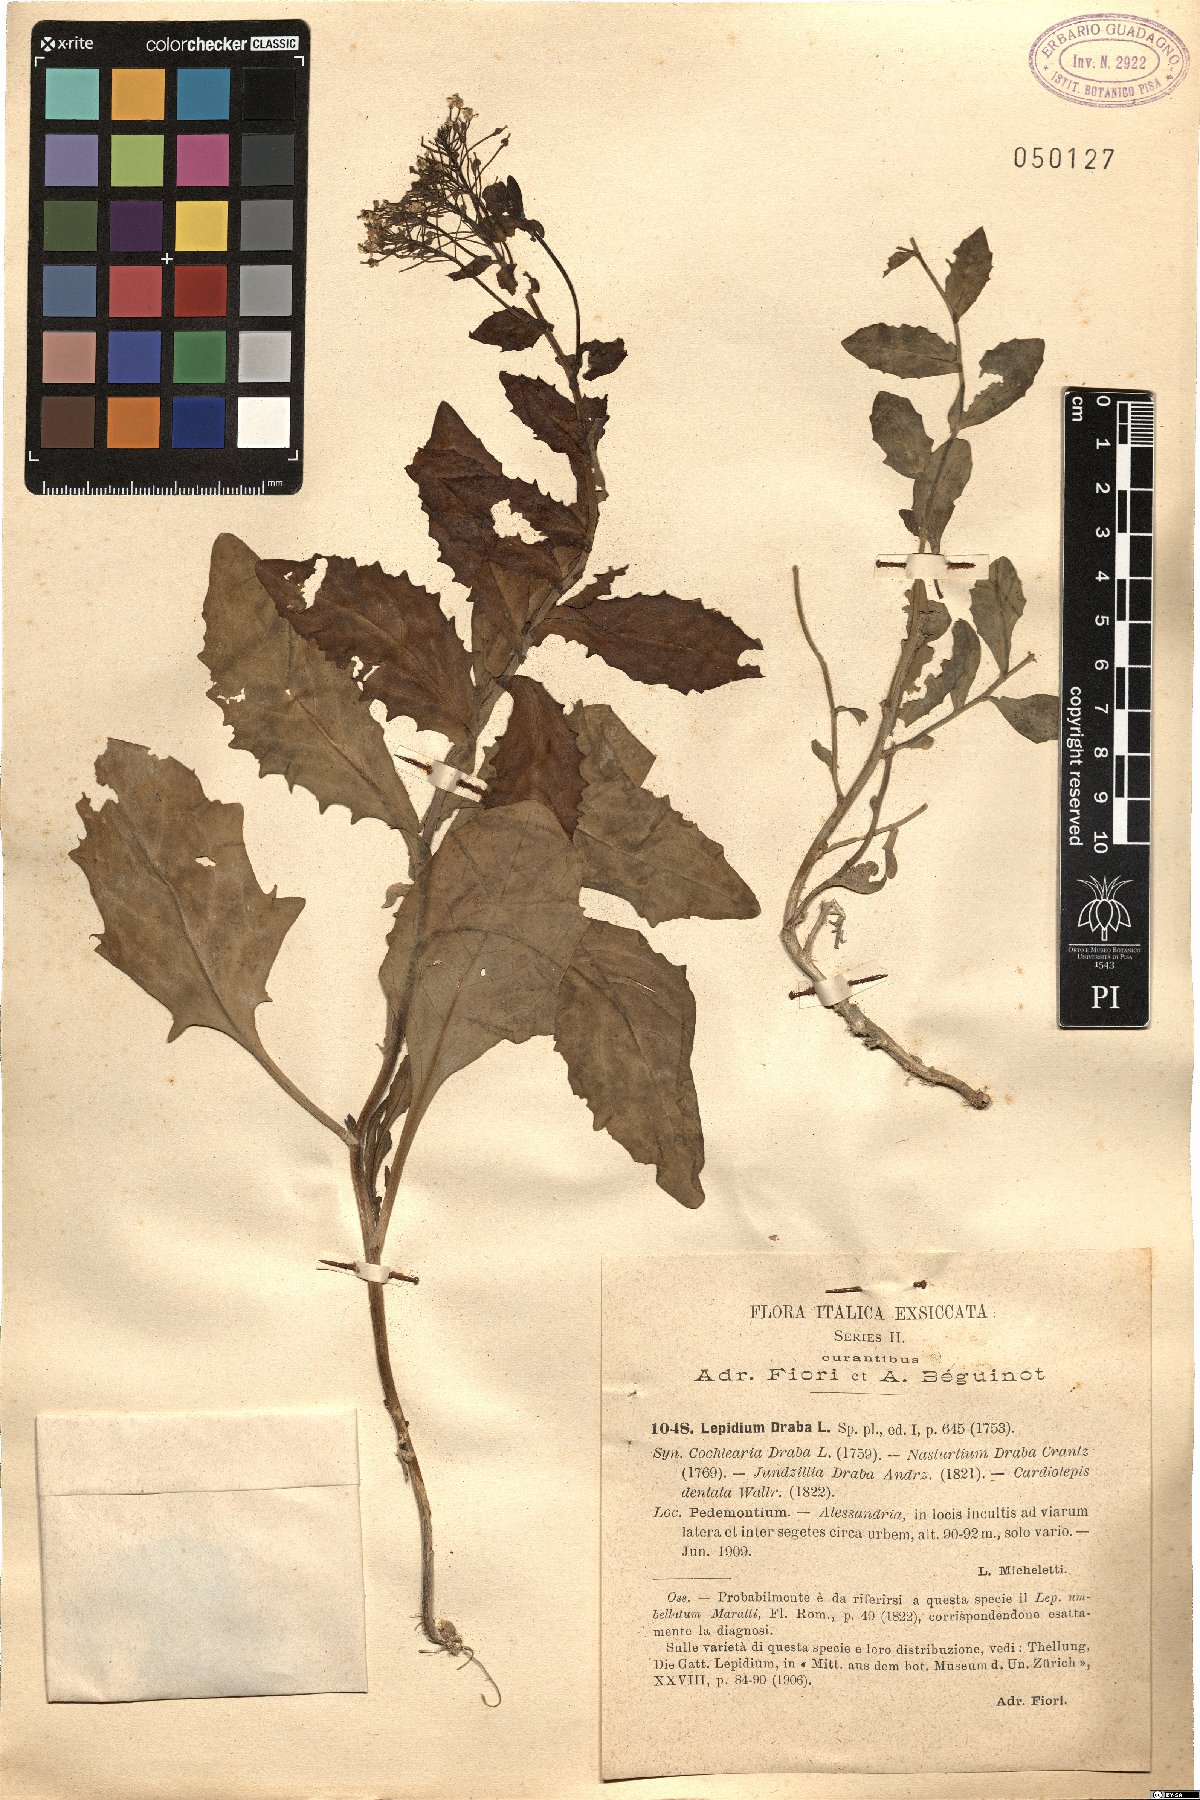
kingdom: Plantae
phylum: Tracheophyta
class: Magnoliopsida
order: Brassicales
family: Brassicaceae
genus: Lepidium
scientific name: Lepidium draba
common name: Hoary cress
